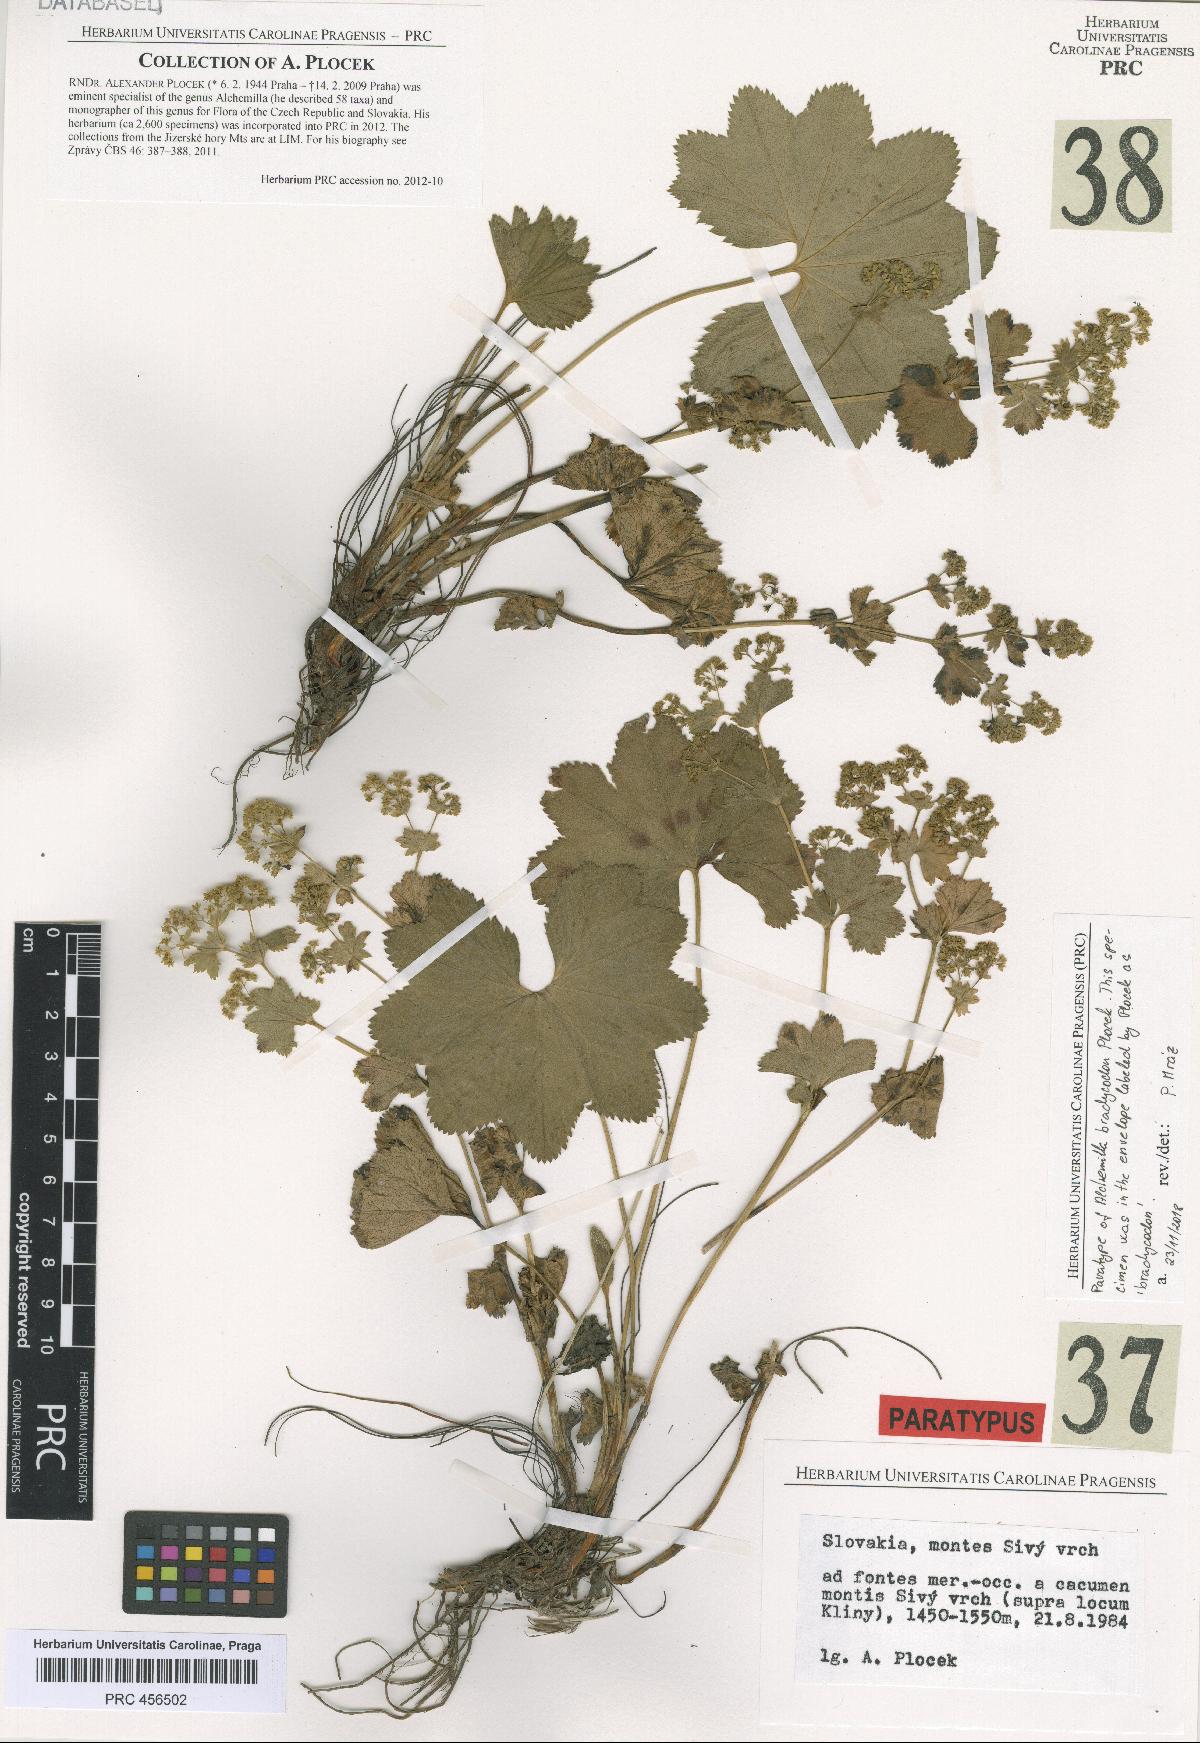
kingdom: Plantae
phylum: Tracheophyta
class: Magnoliopsida
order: Rosales
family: Rosaceae
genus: Alchemilla
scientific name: Alchemilla brachycodon
